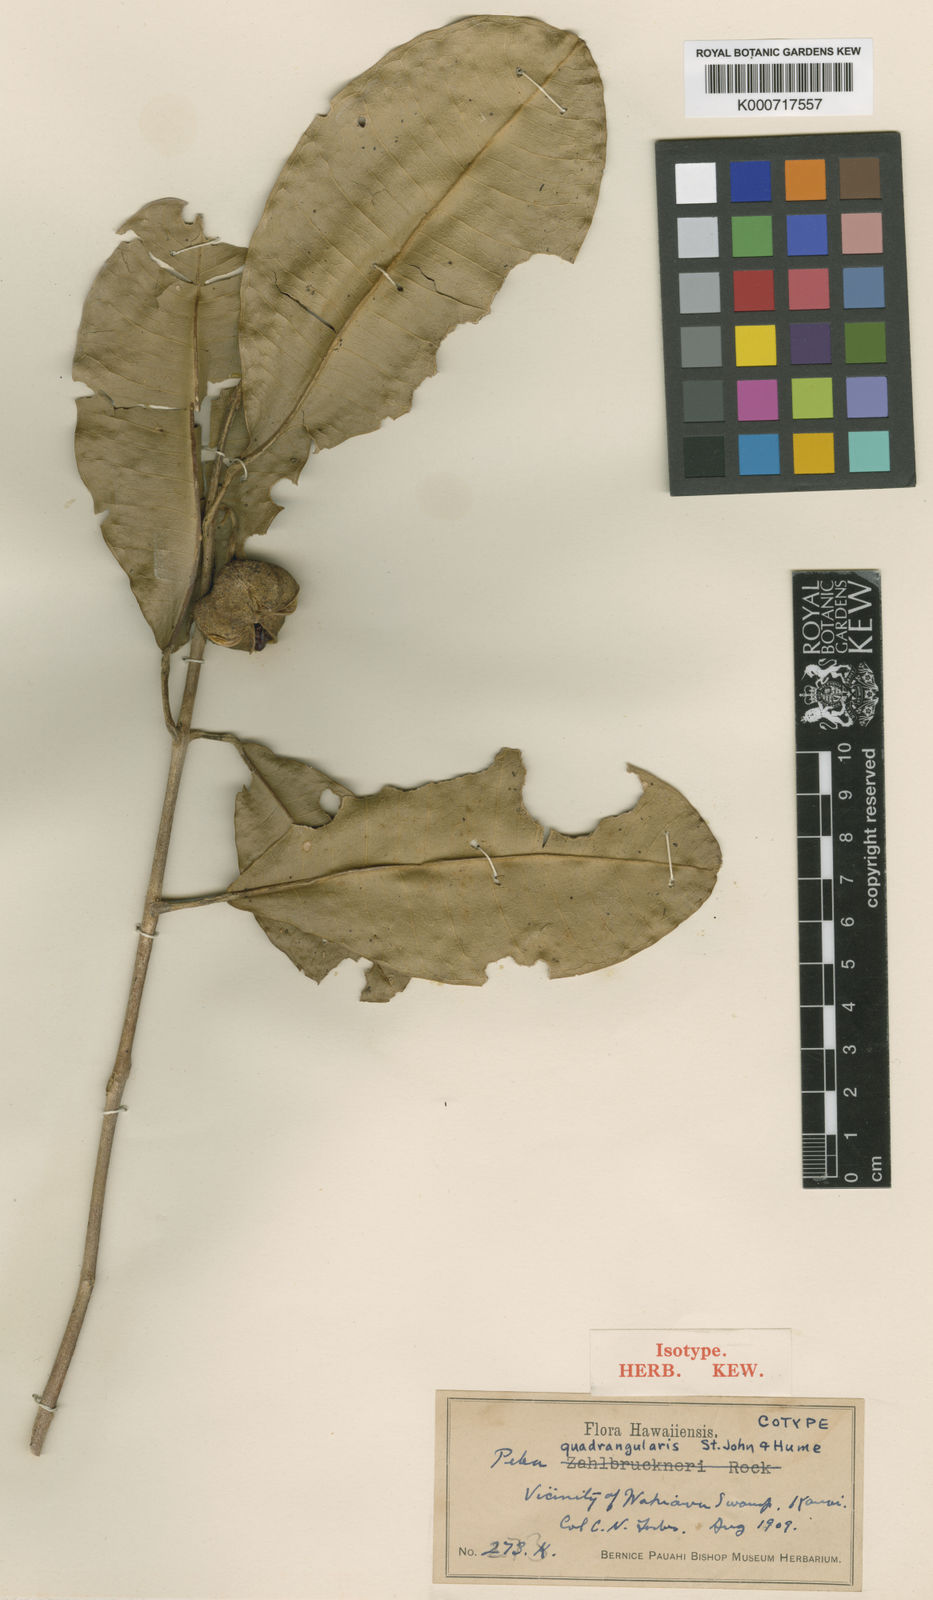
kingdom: Plantae
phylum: Tracheophyta
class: Magnoliopsida
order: Sapindales
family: Rutaceae
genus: Melicope
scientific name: Melicope quadrangularis
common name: Four-angled pelea
